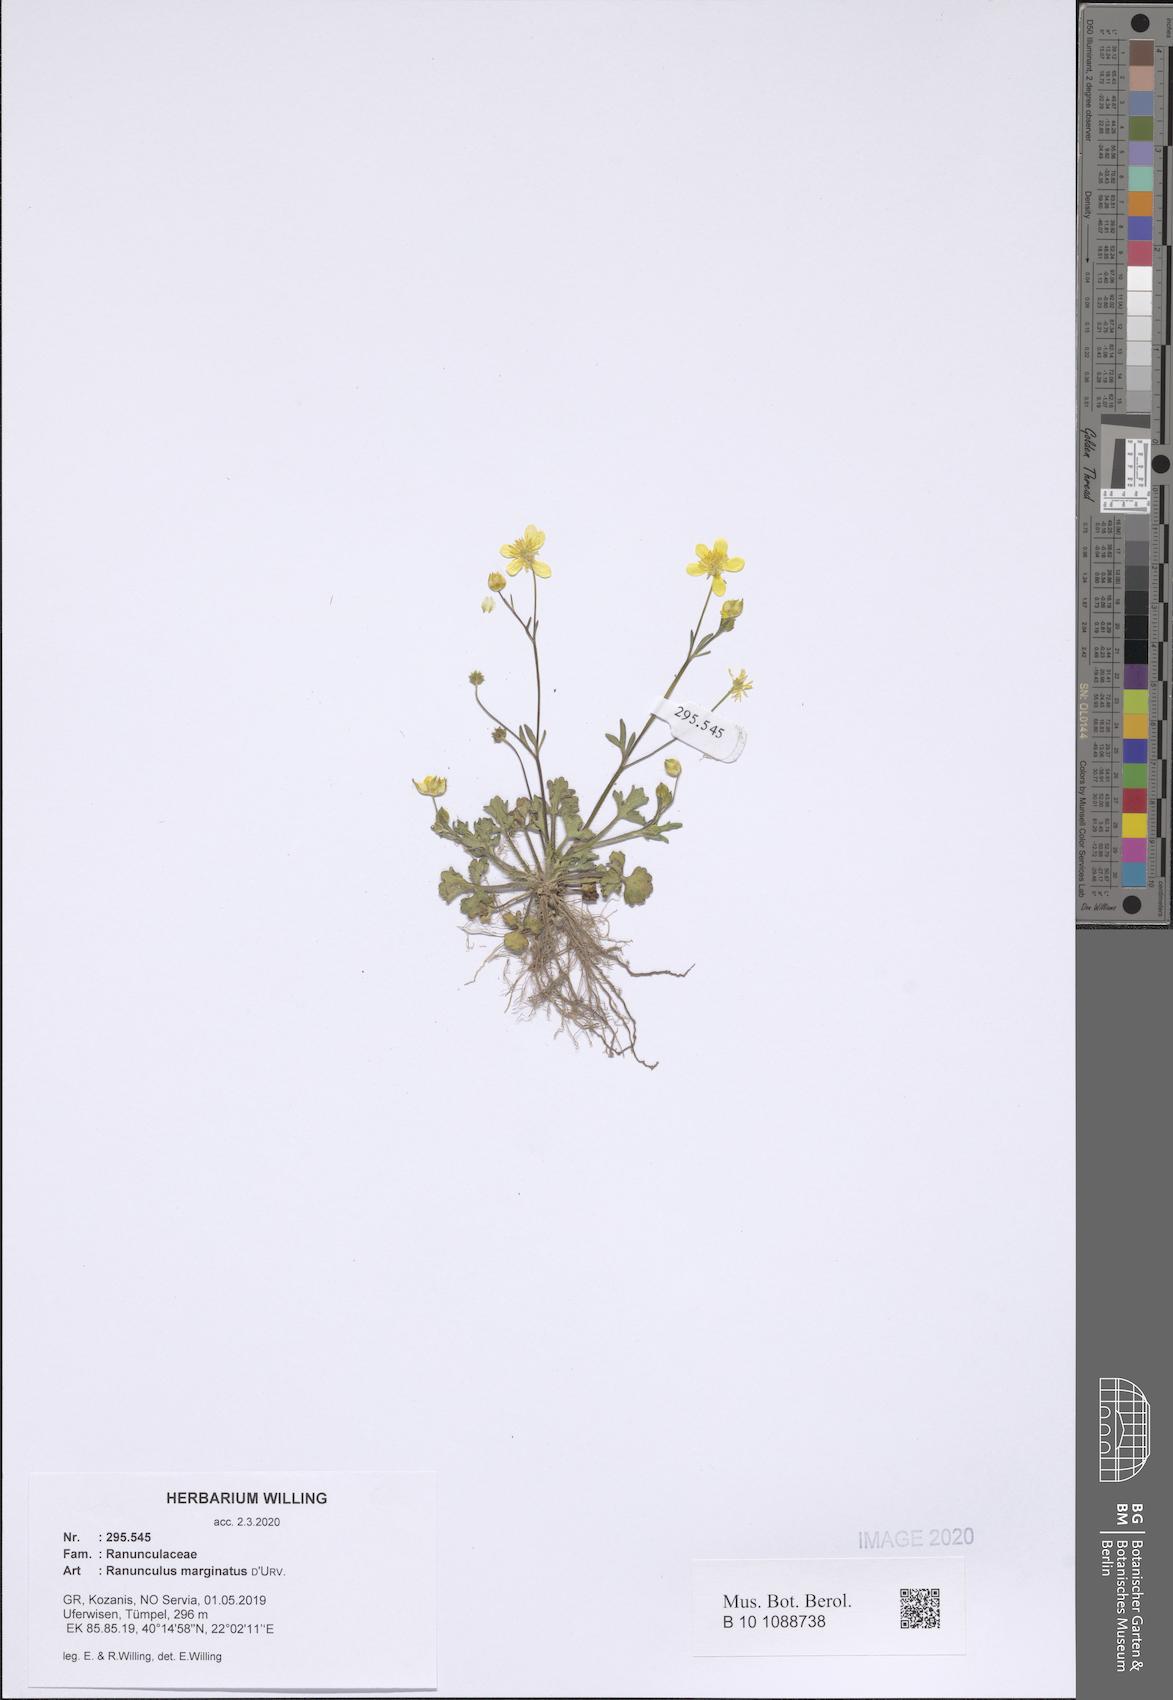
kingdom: Plantae
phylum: Tracheophyta
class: Magnoliopsida
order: Ranunculales
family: Ranunculaceae
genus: Ranunculus
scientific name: Ranunculus marginatus
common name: St. martin's buttercup
